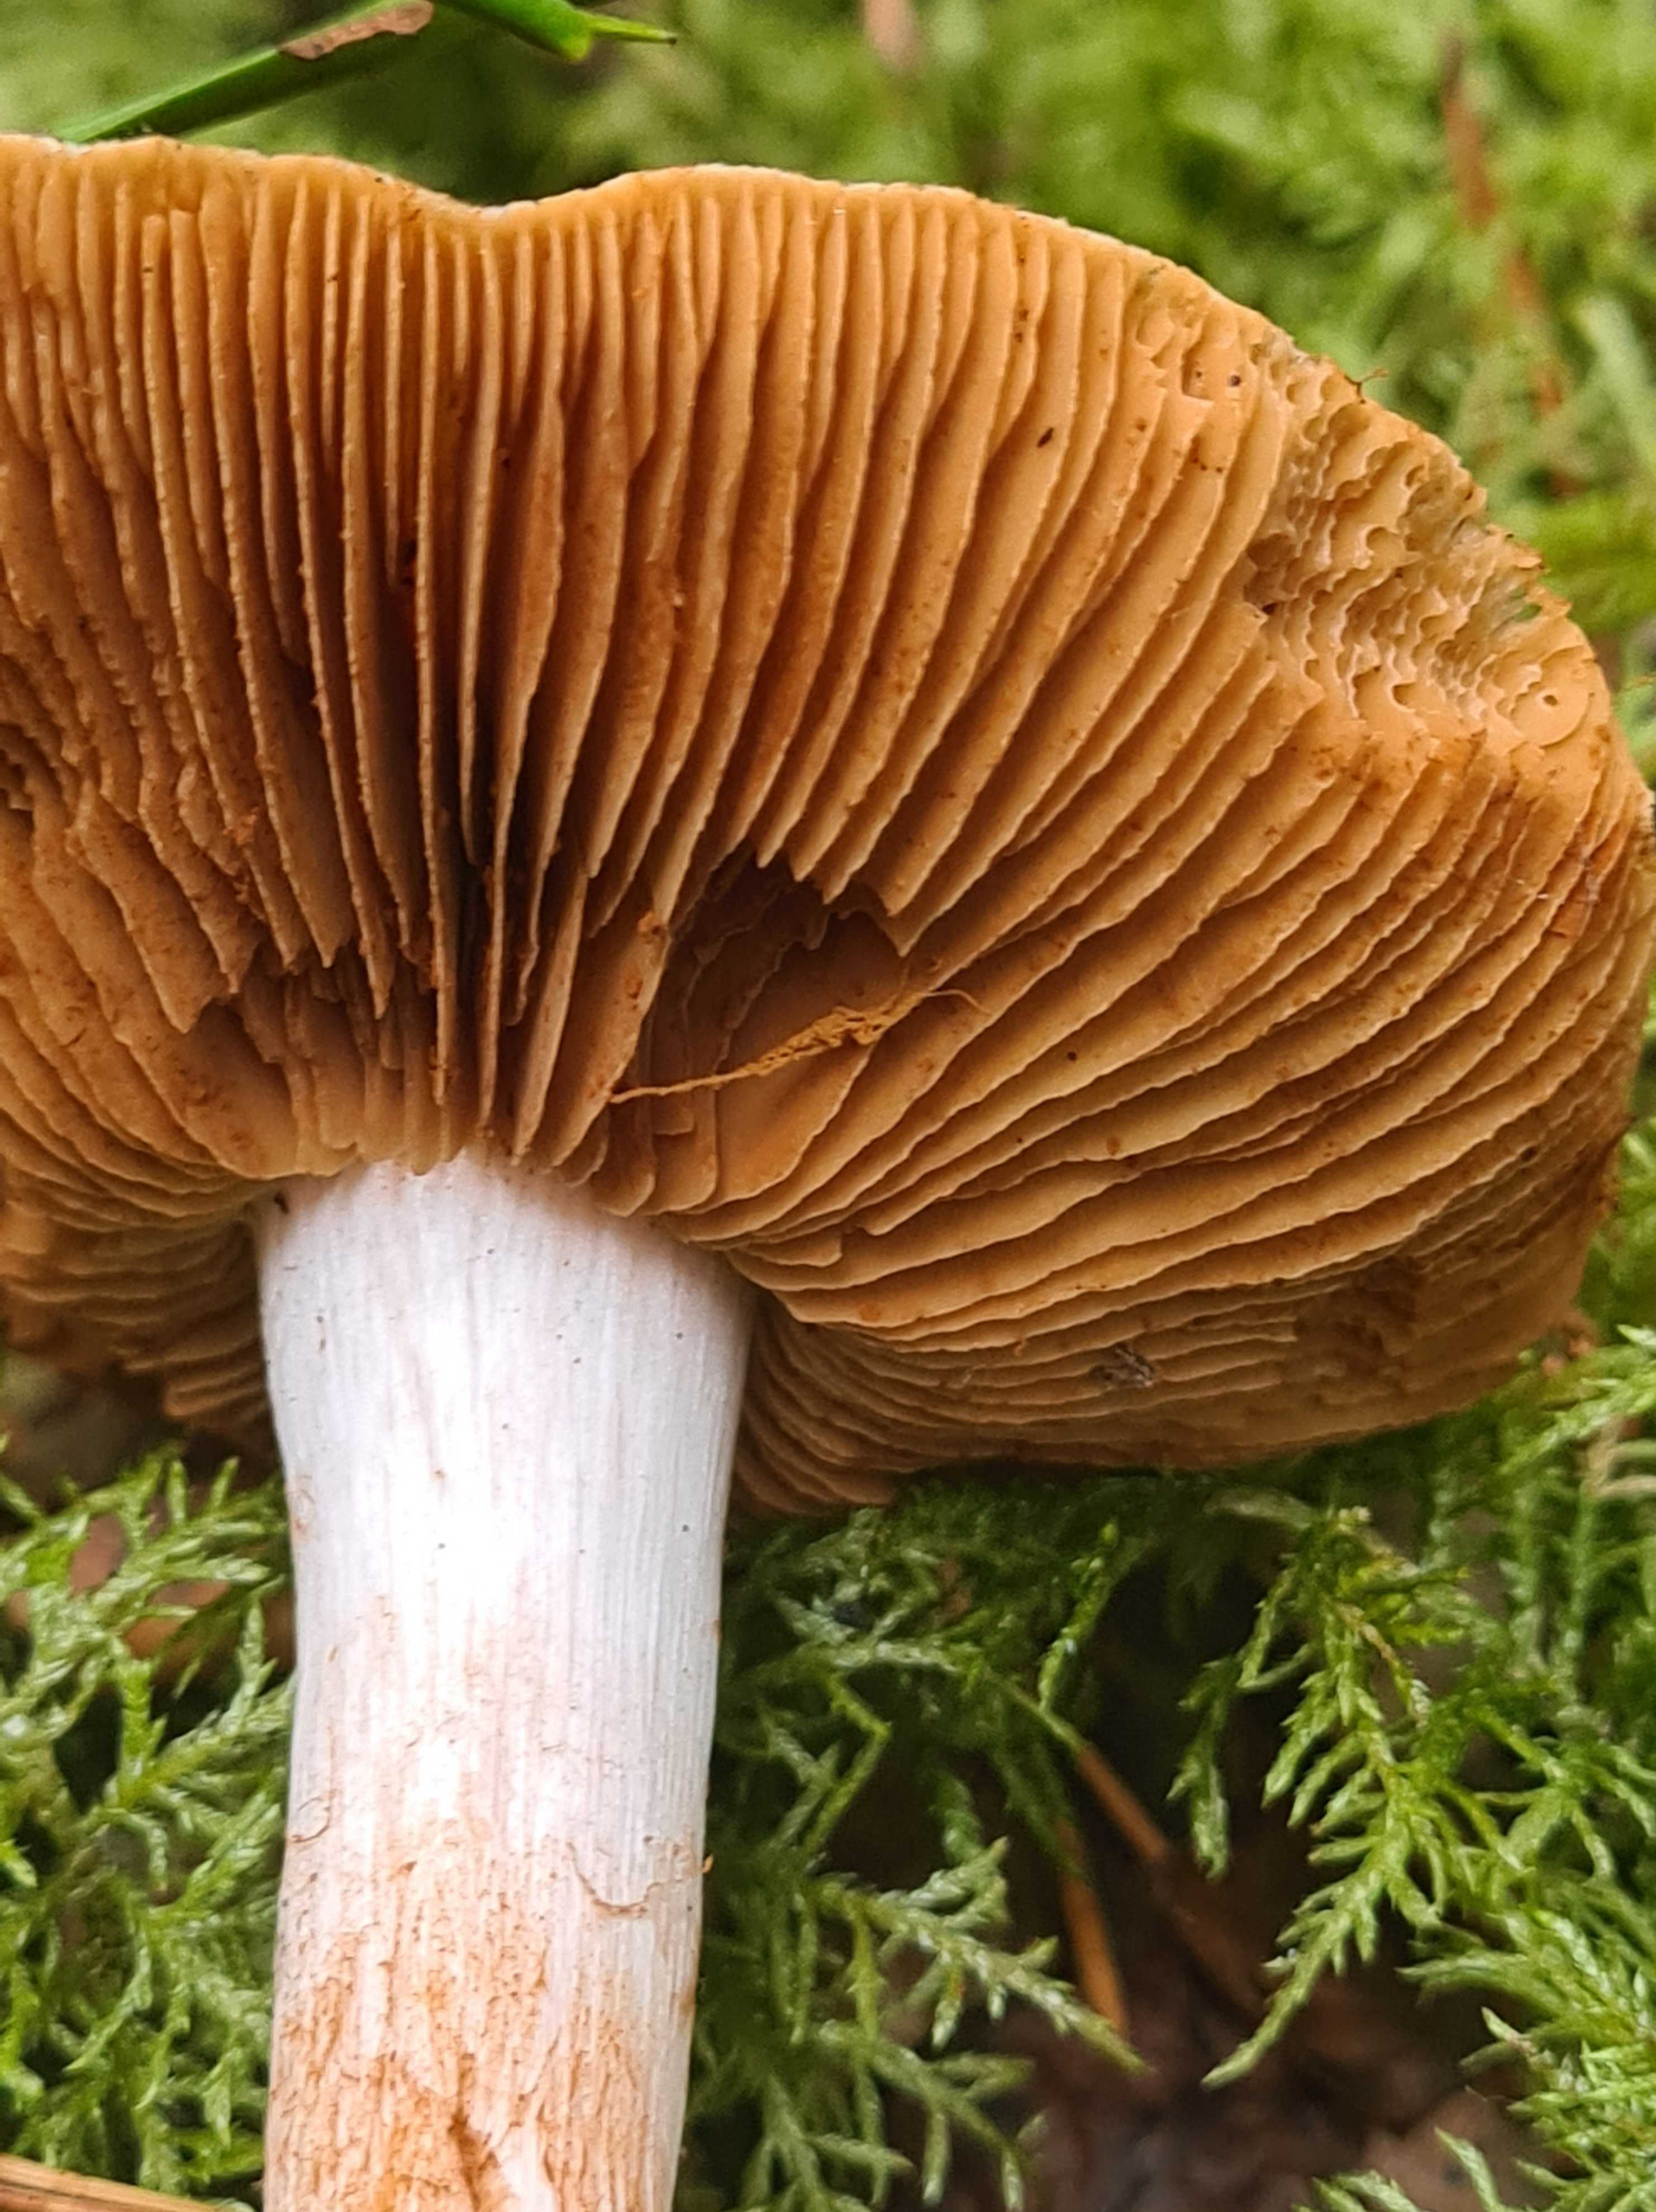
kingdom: Fungi
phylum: Basidiomycota
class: Agaricomycetes
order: Agaricales
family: Cortinariaceae
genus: Cortinarius
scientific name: Cortinarius
